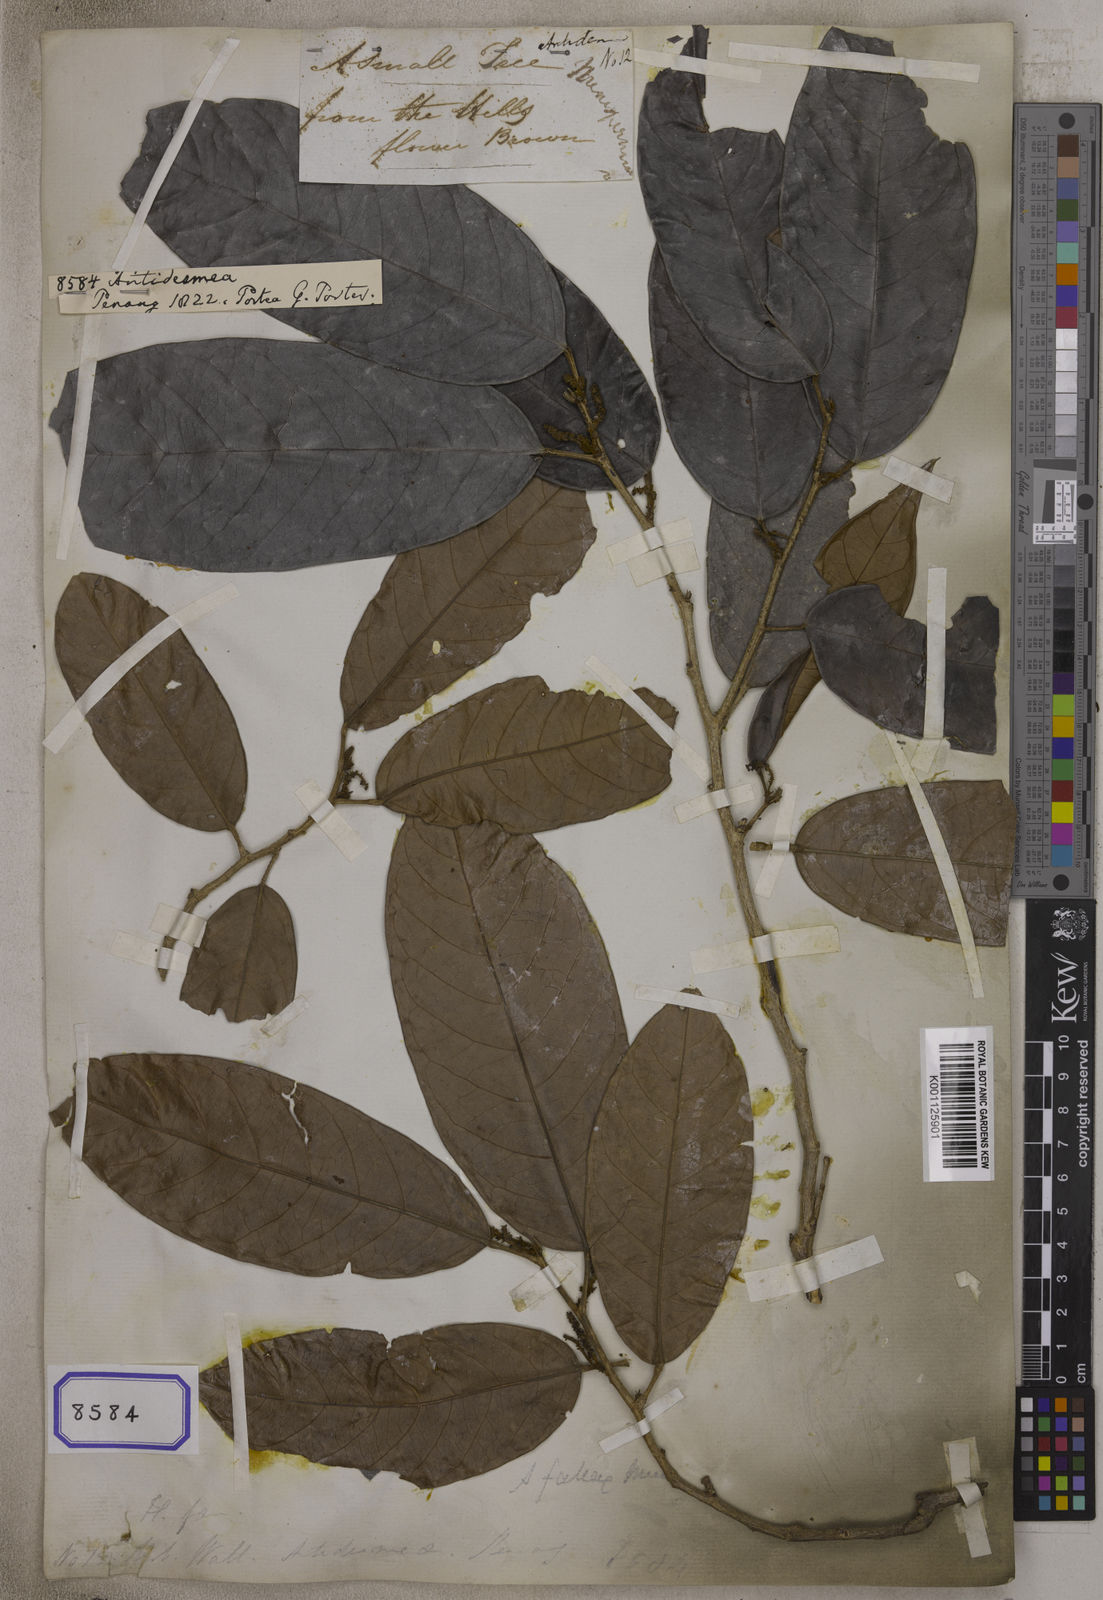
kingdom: Plantae
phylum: Tracheophyta
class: Magnoliopsida
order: Malpighiales
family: Phyllanthaceae
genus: Antidesma
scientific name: Antidesma
